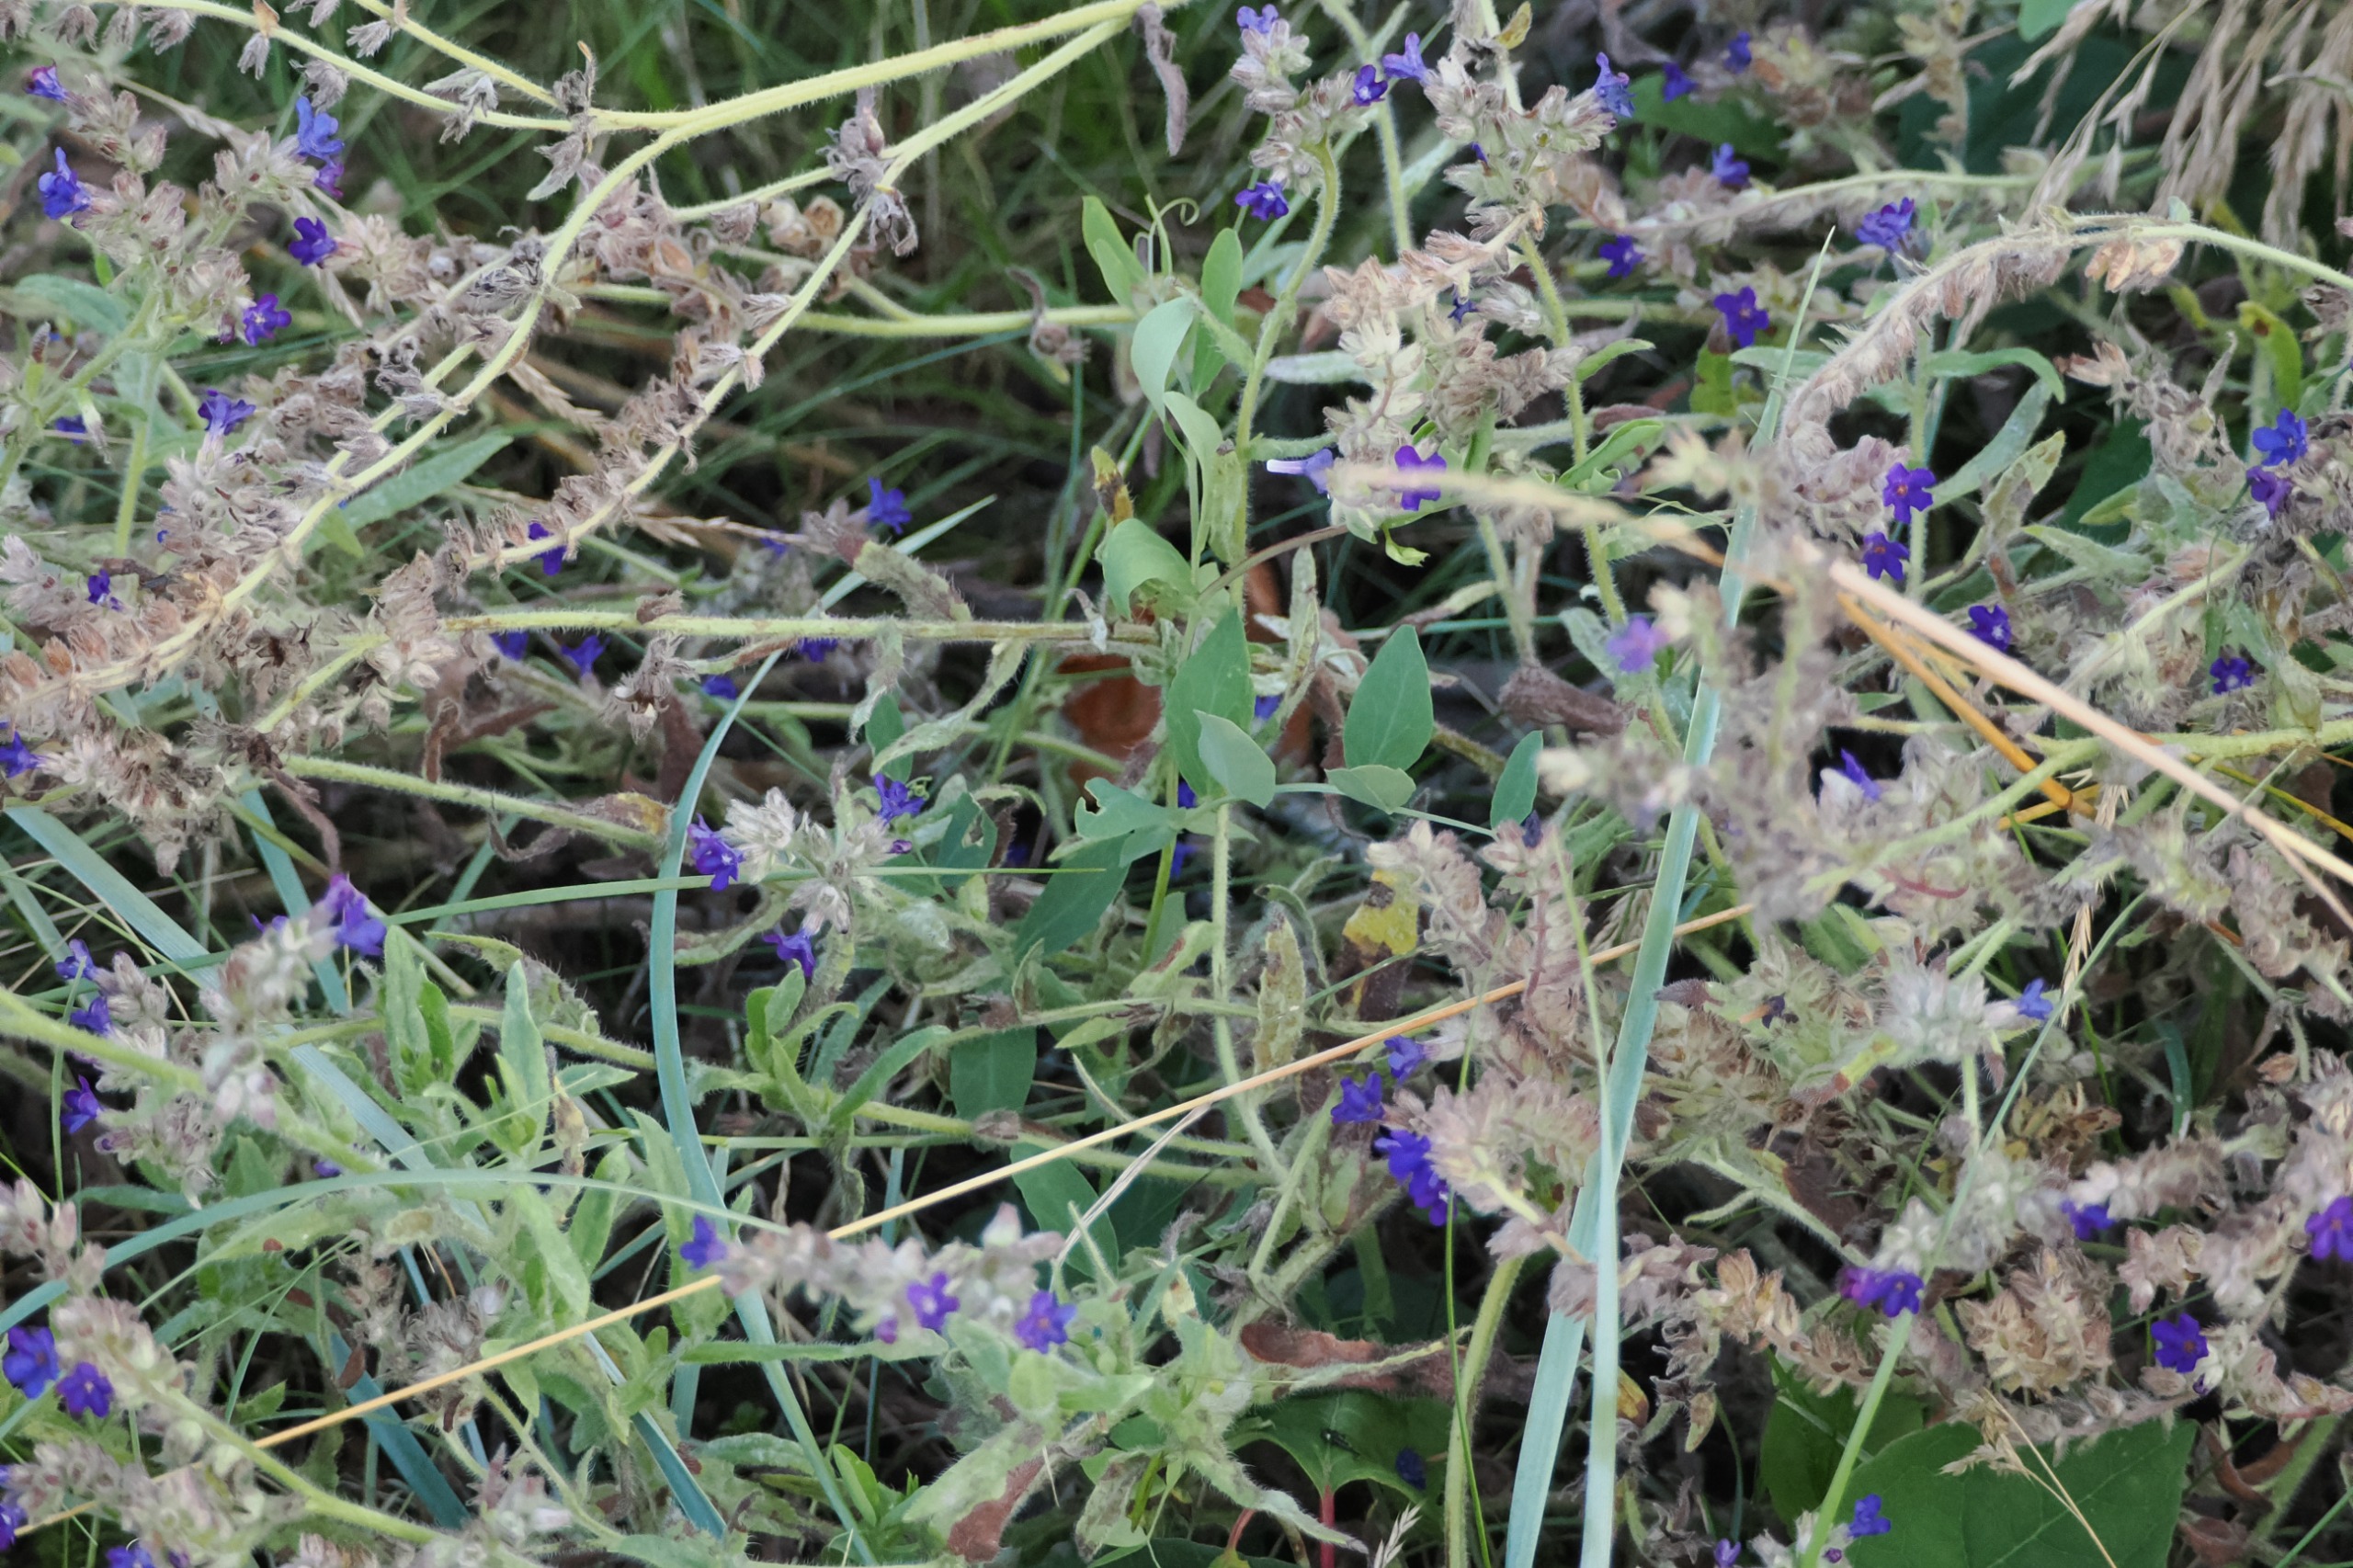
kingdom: Plantae
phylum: Tracheophyta
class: Magnoliopsida
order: Boraginales
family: Boraginaceae
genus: Anchusa
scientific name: Anchusa officinalis
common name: Læge-oksetunge
